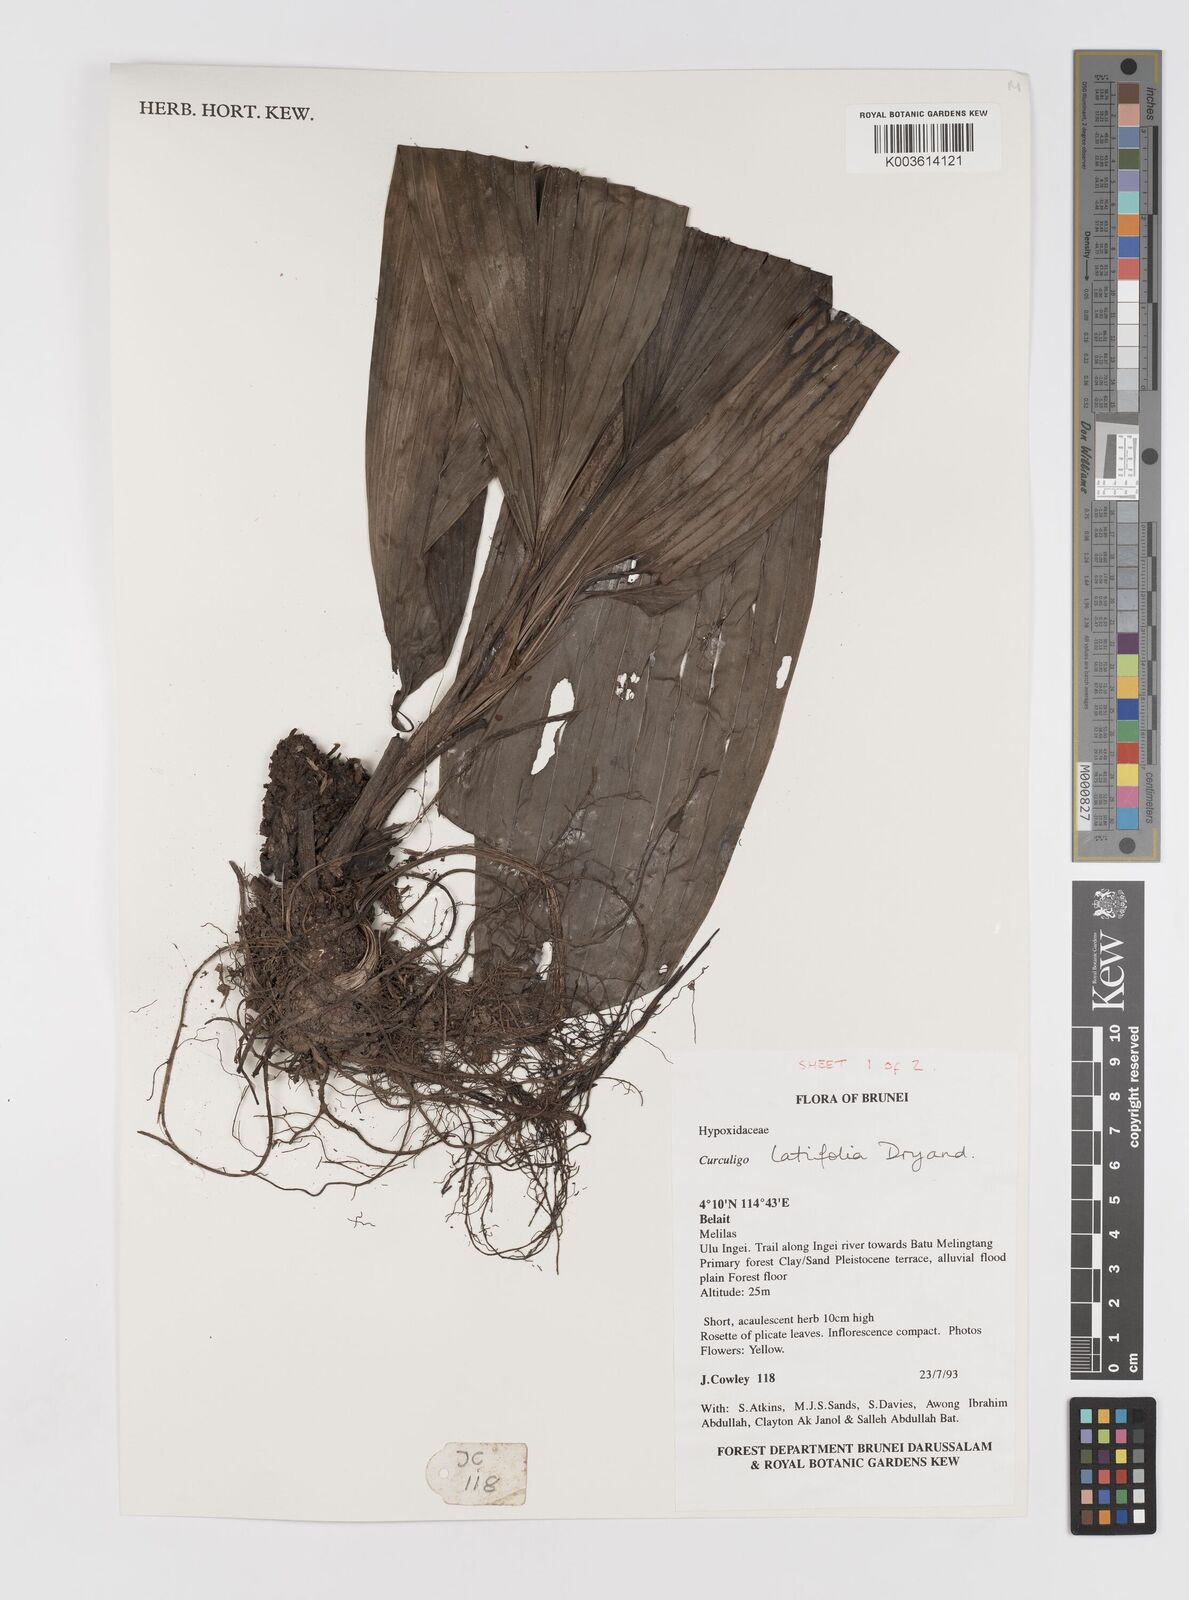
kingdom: Plantae
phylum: Tracheophyta
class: Liliopsida
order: Asparagales
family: Hypoxidaceae
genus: Curculigo
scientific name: Curculigo latifolia
